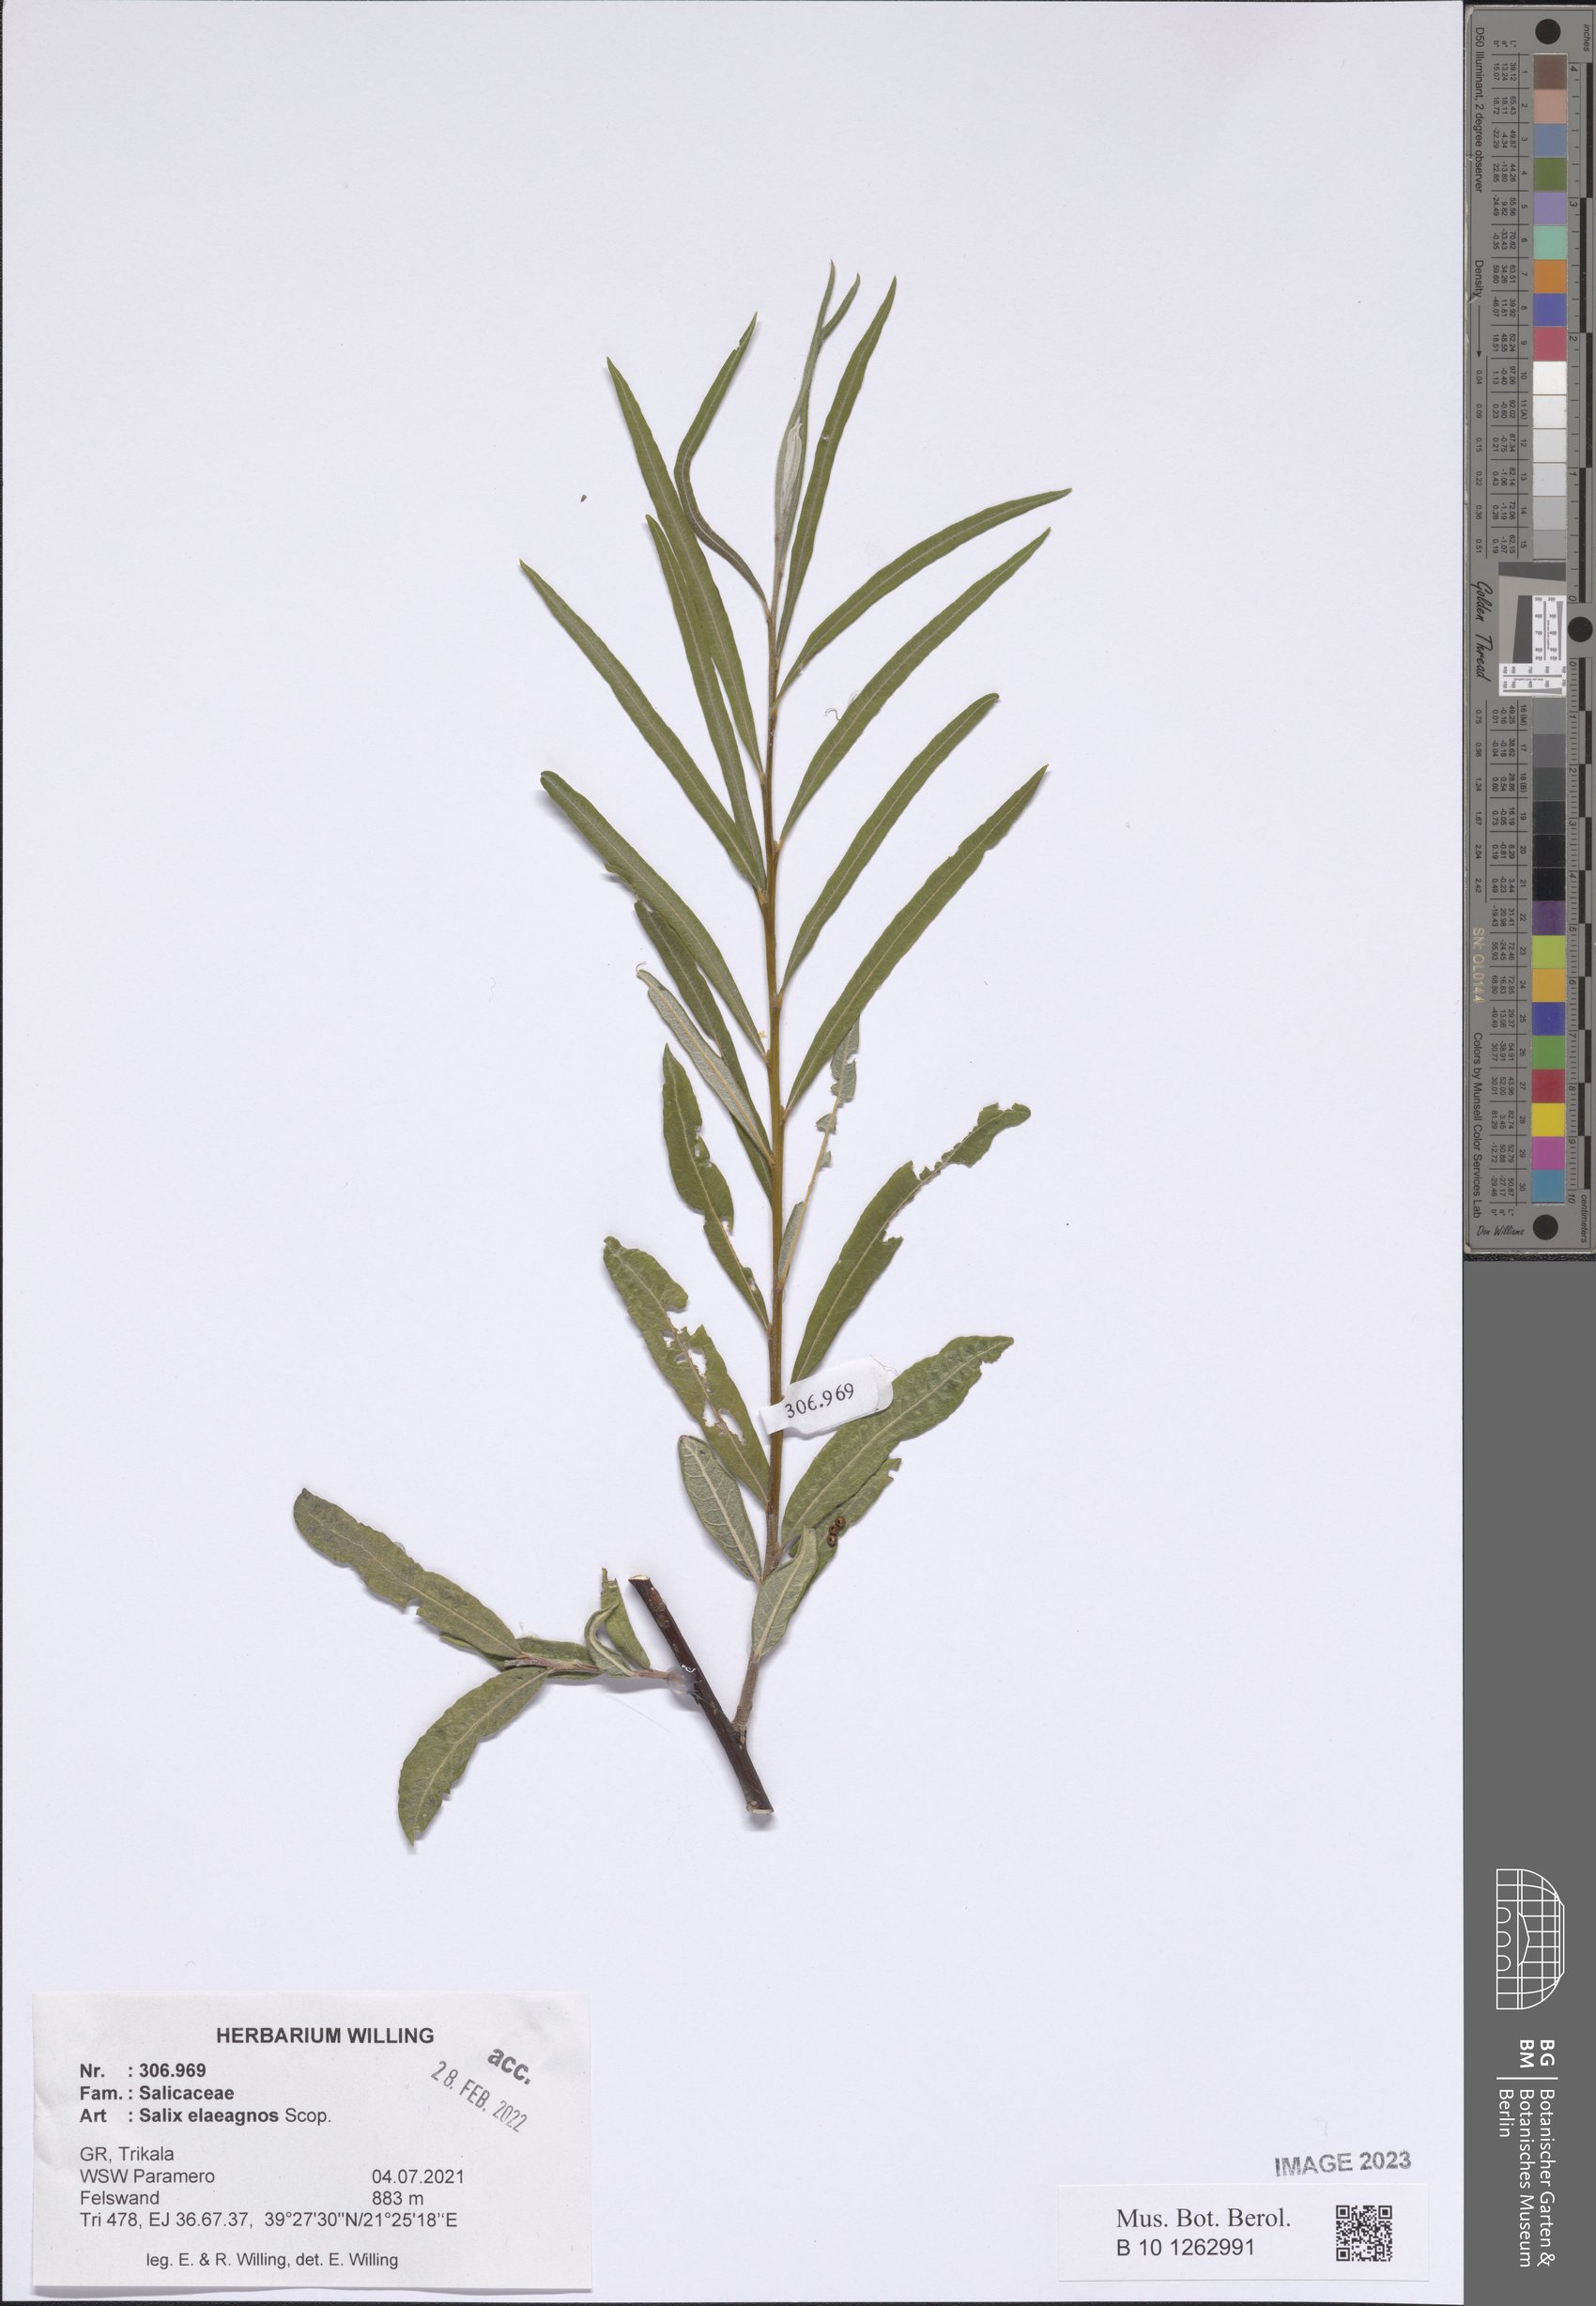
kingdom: Plantae
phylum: Tracheophyta
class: Magnoliopsida
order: Malpighiales
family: Salicaceae
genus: Salix
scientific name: Salix eleagnos
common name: Elaeagnus willow
